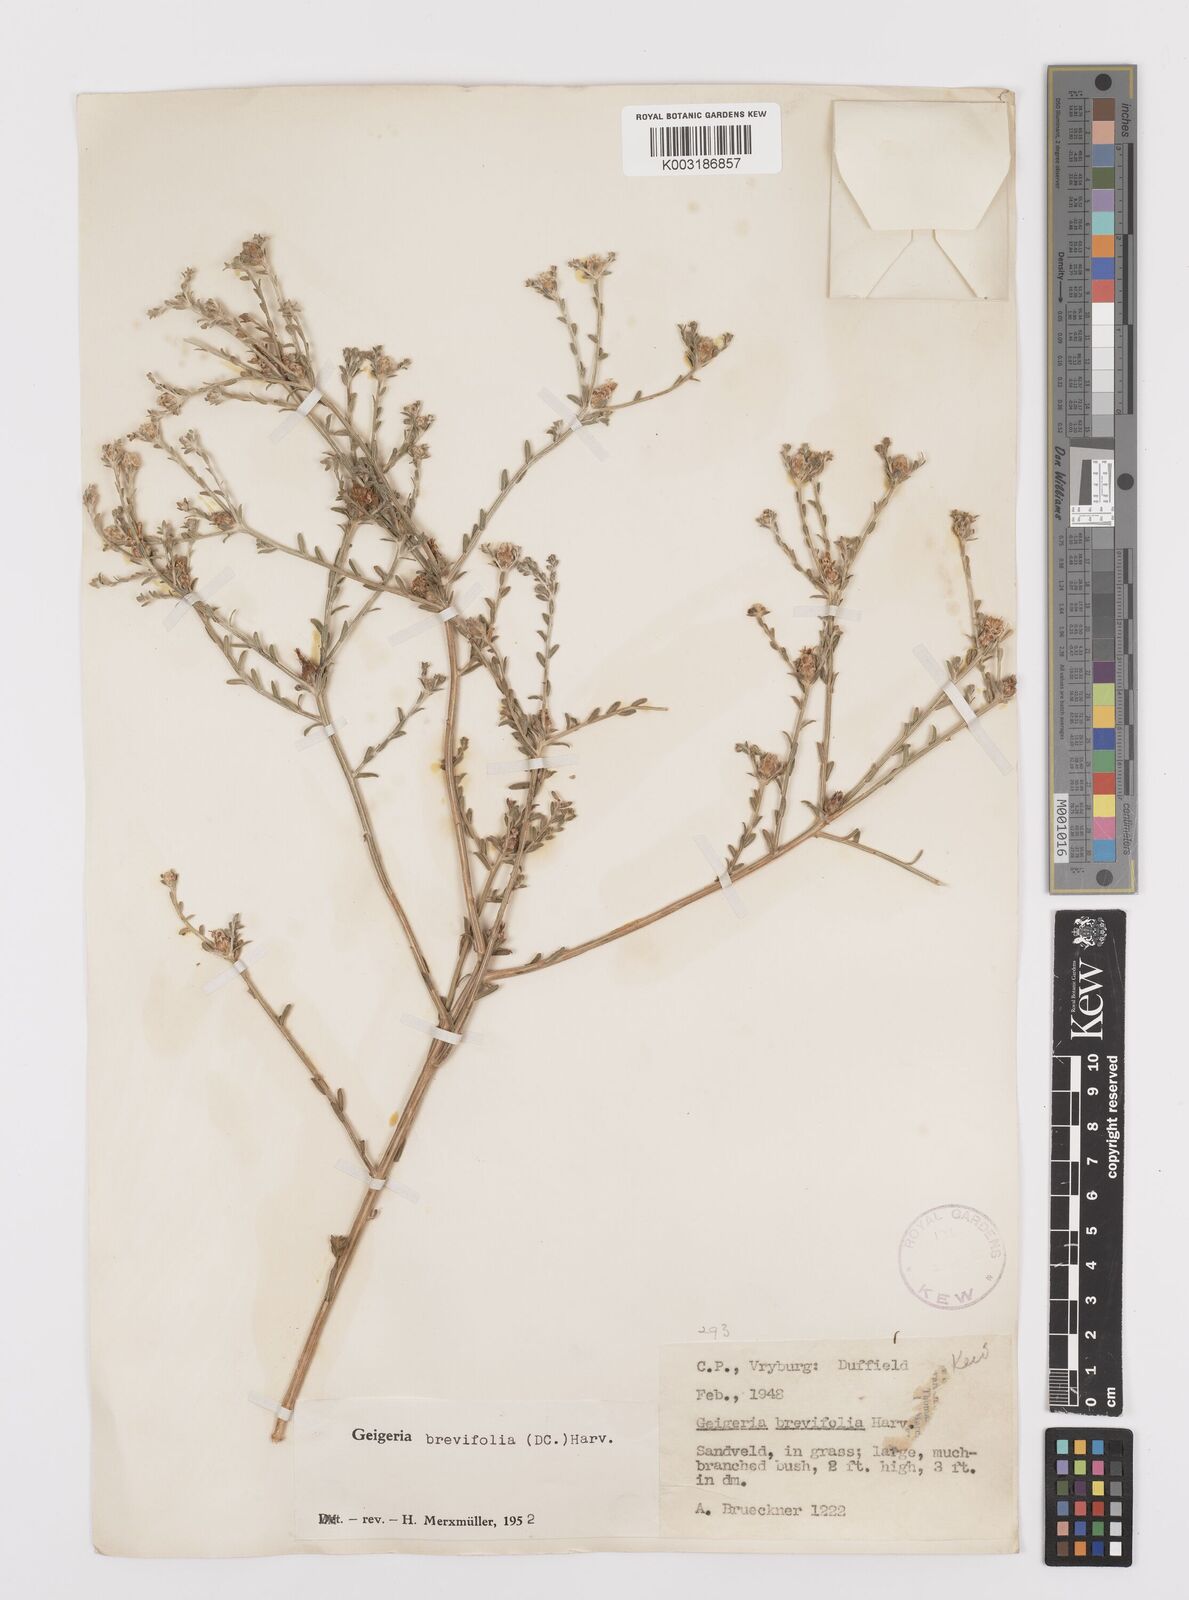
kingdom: Plantae
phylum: Tracheophyta
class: Magnoliopsida
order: Asterales
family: Asteraceae
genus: Geigeria
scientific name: Geigeria brevifolia
